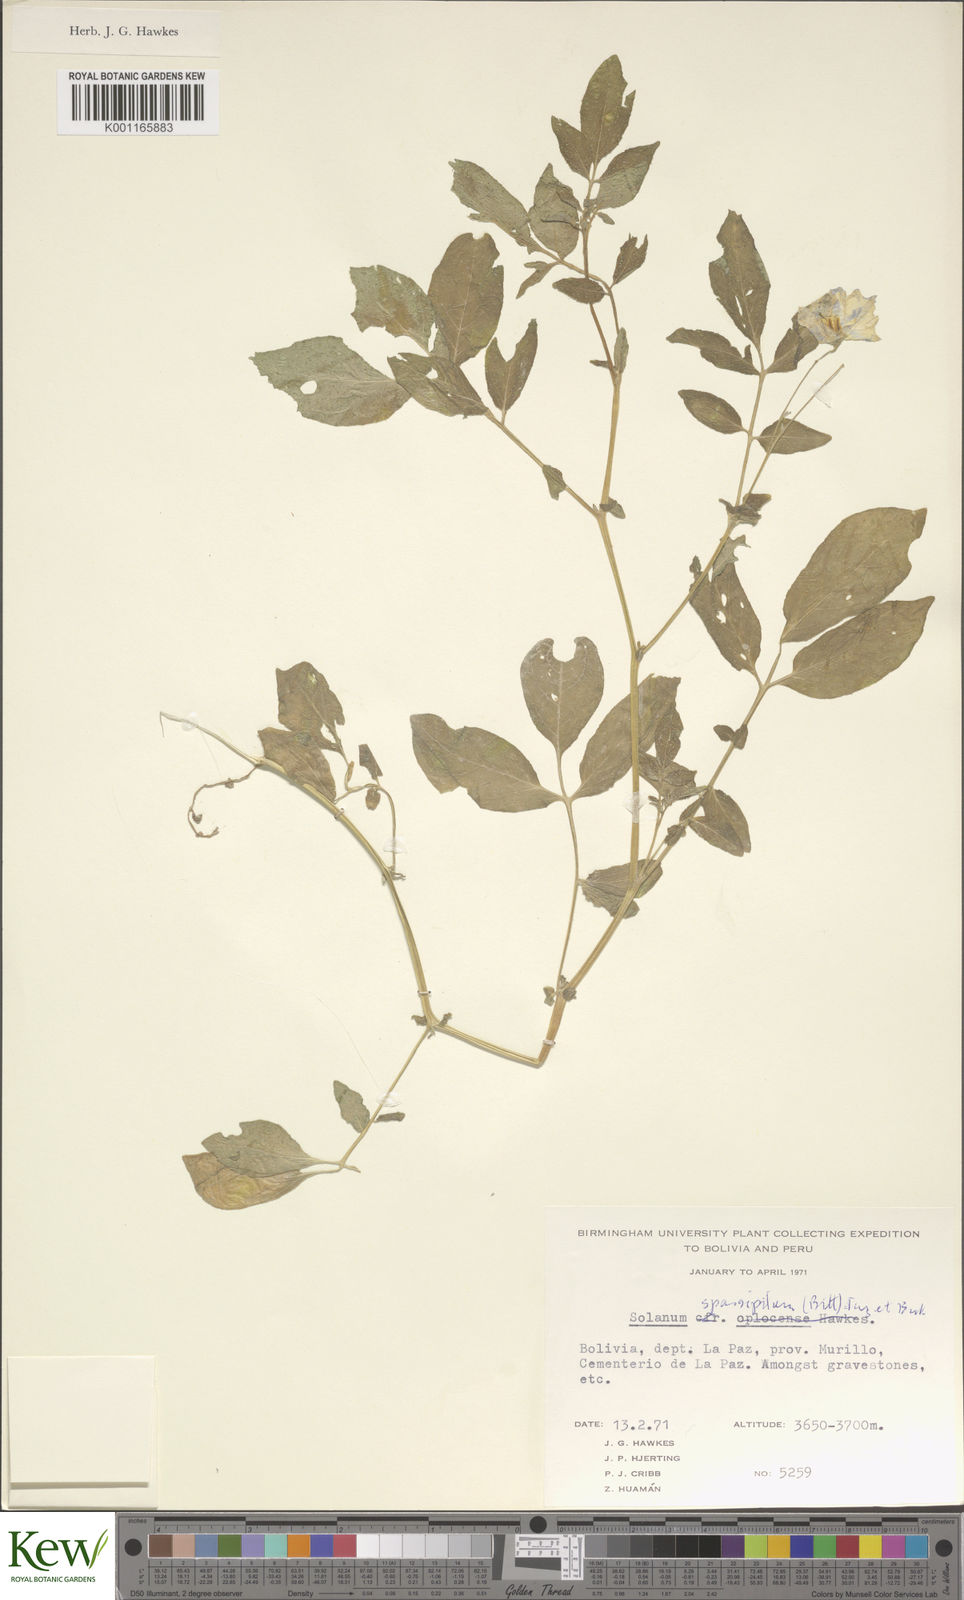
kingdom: Plantae
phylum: Tracheophyta
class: Magnoliopsida
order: Solanales
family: Solanaceae
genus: Solanum
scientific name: Solanum brevicaule
